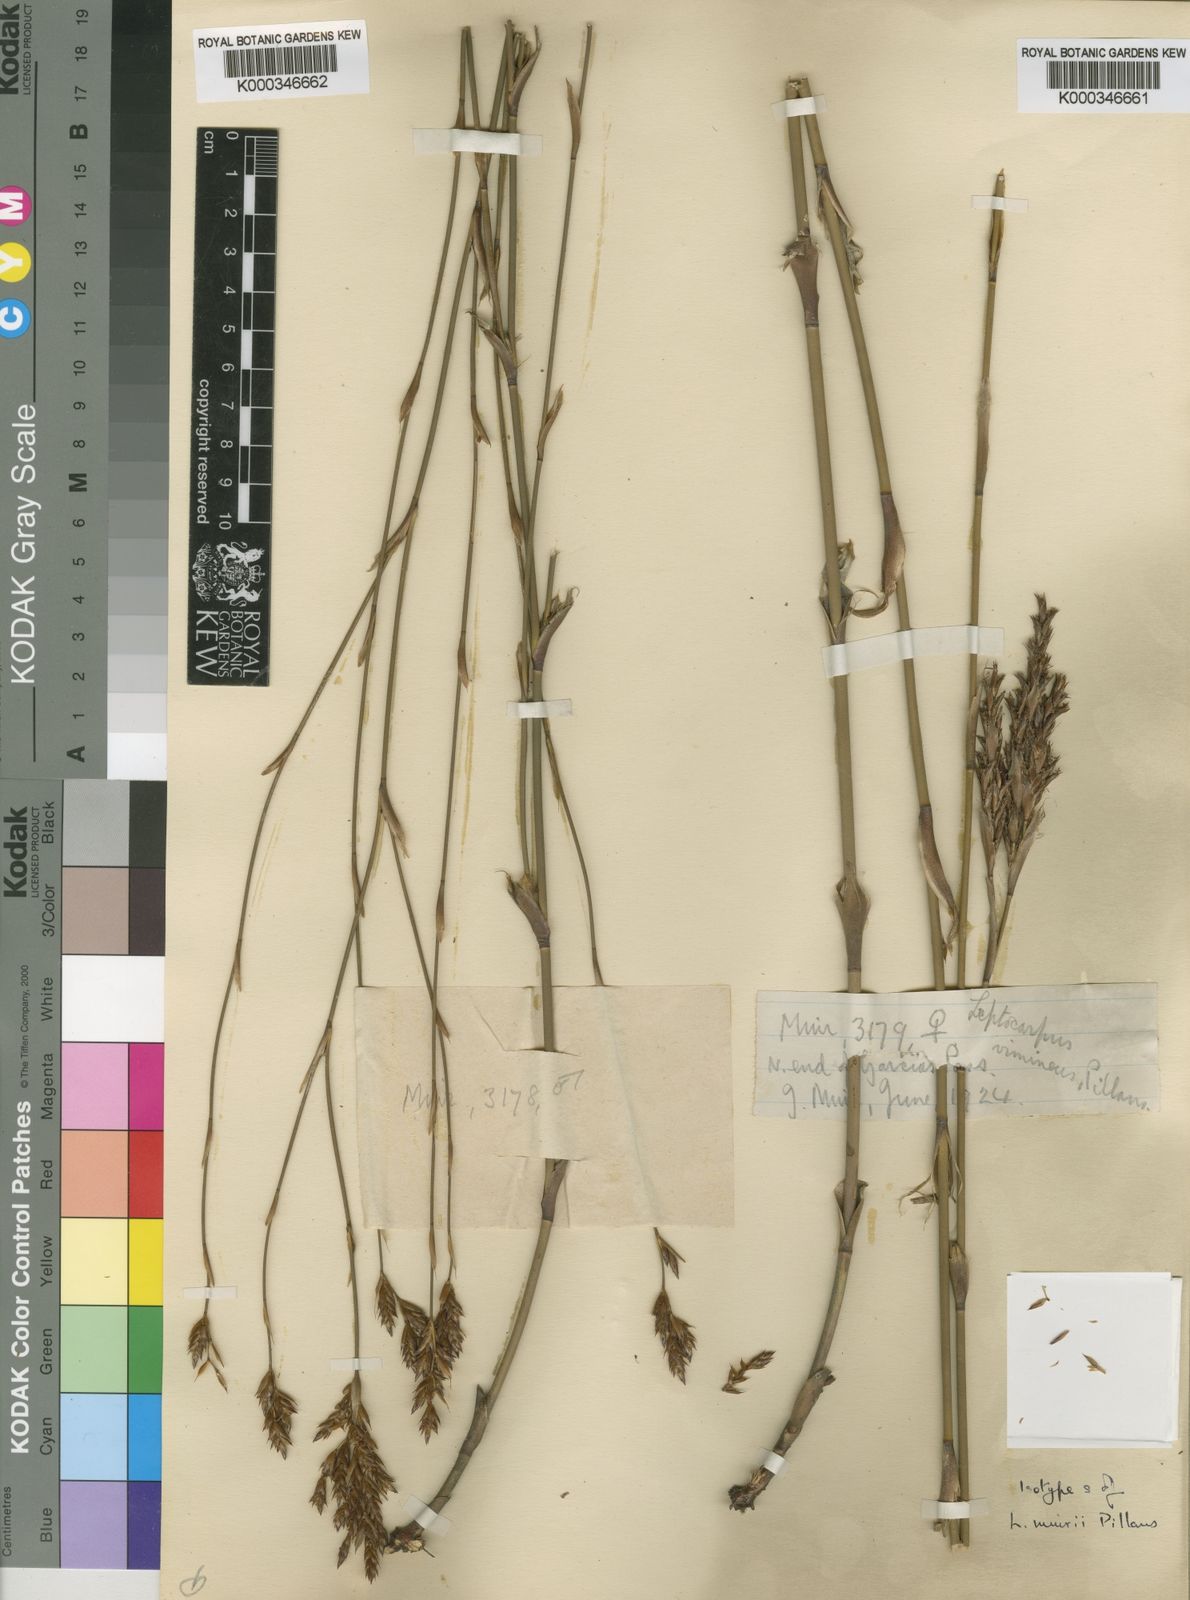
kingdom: Plantae
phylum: Tracheophyta
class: Liliopsida
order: Poales
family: Restionaceae
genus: Restio
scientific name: Restio muirii
